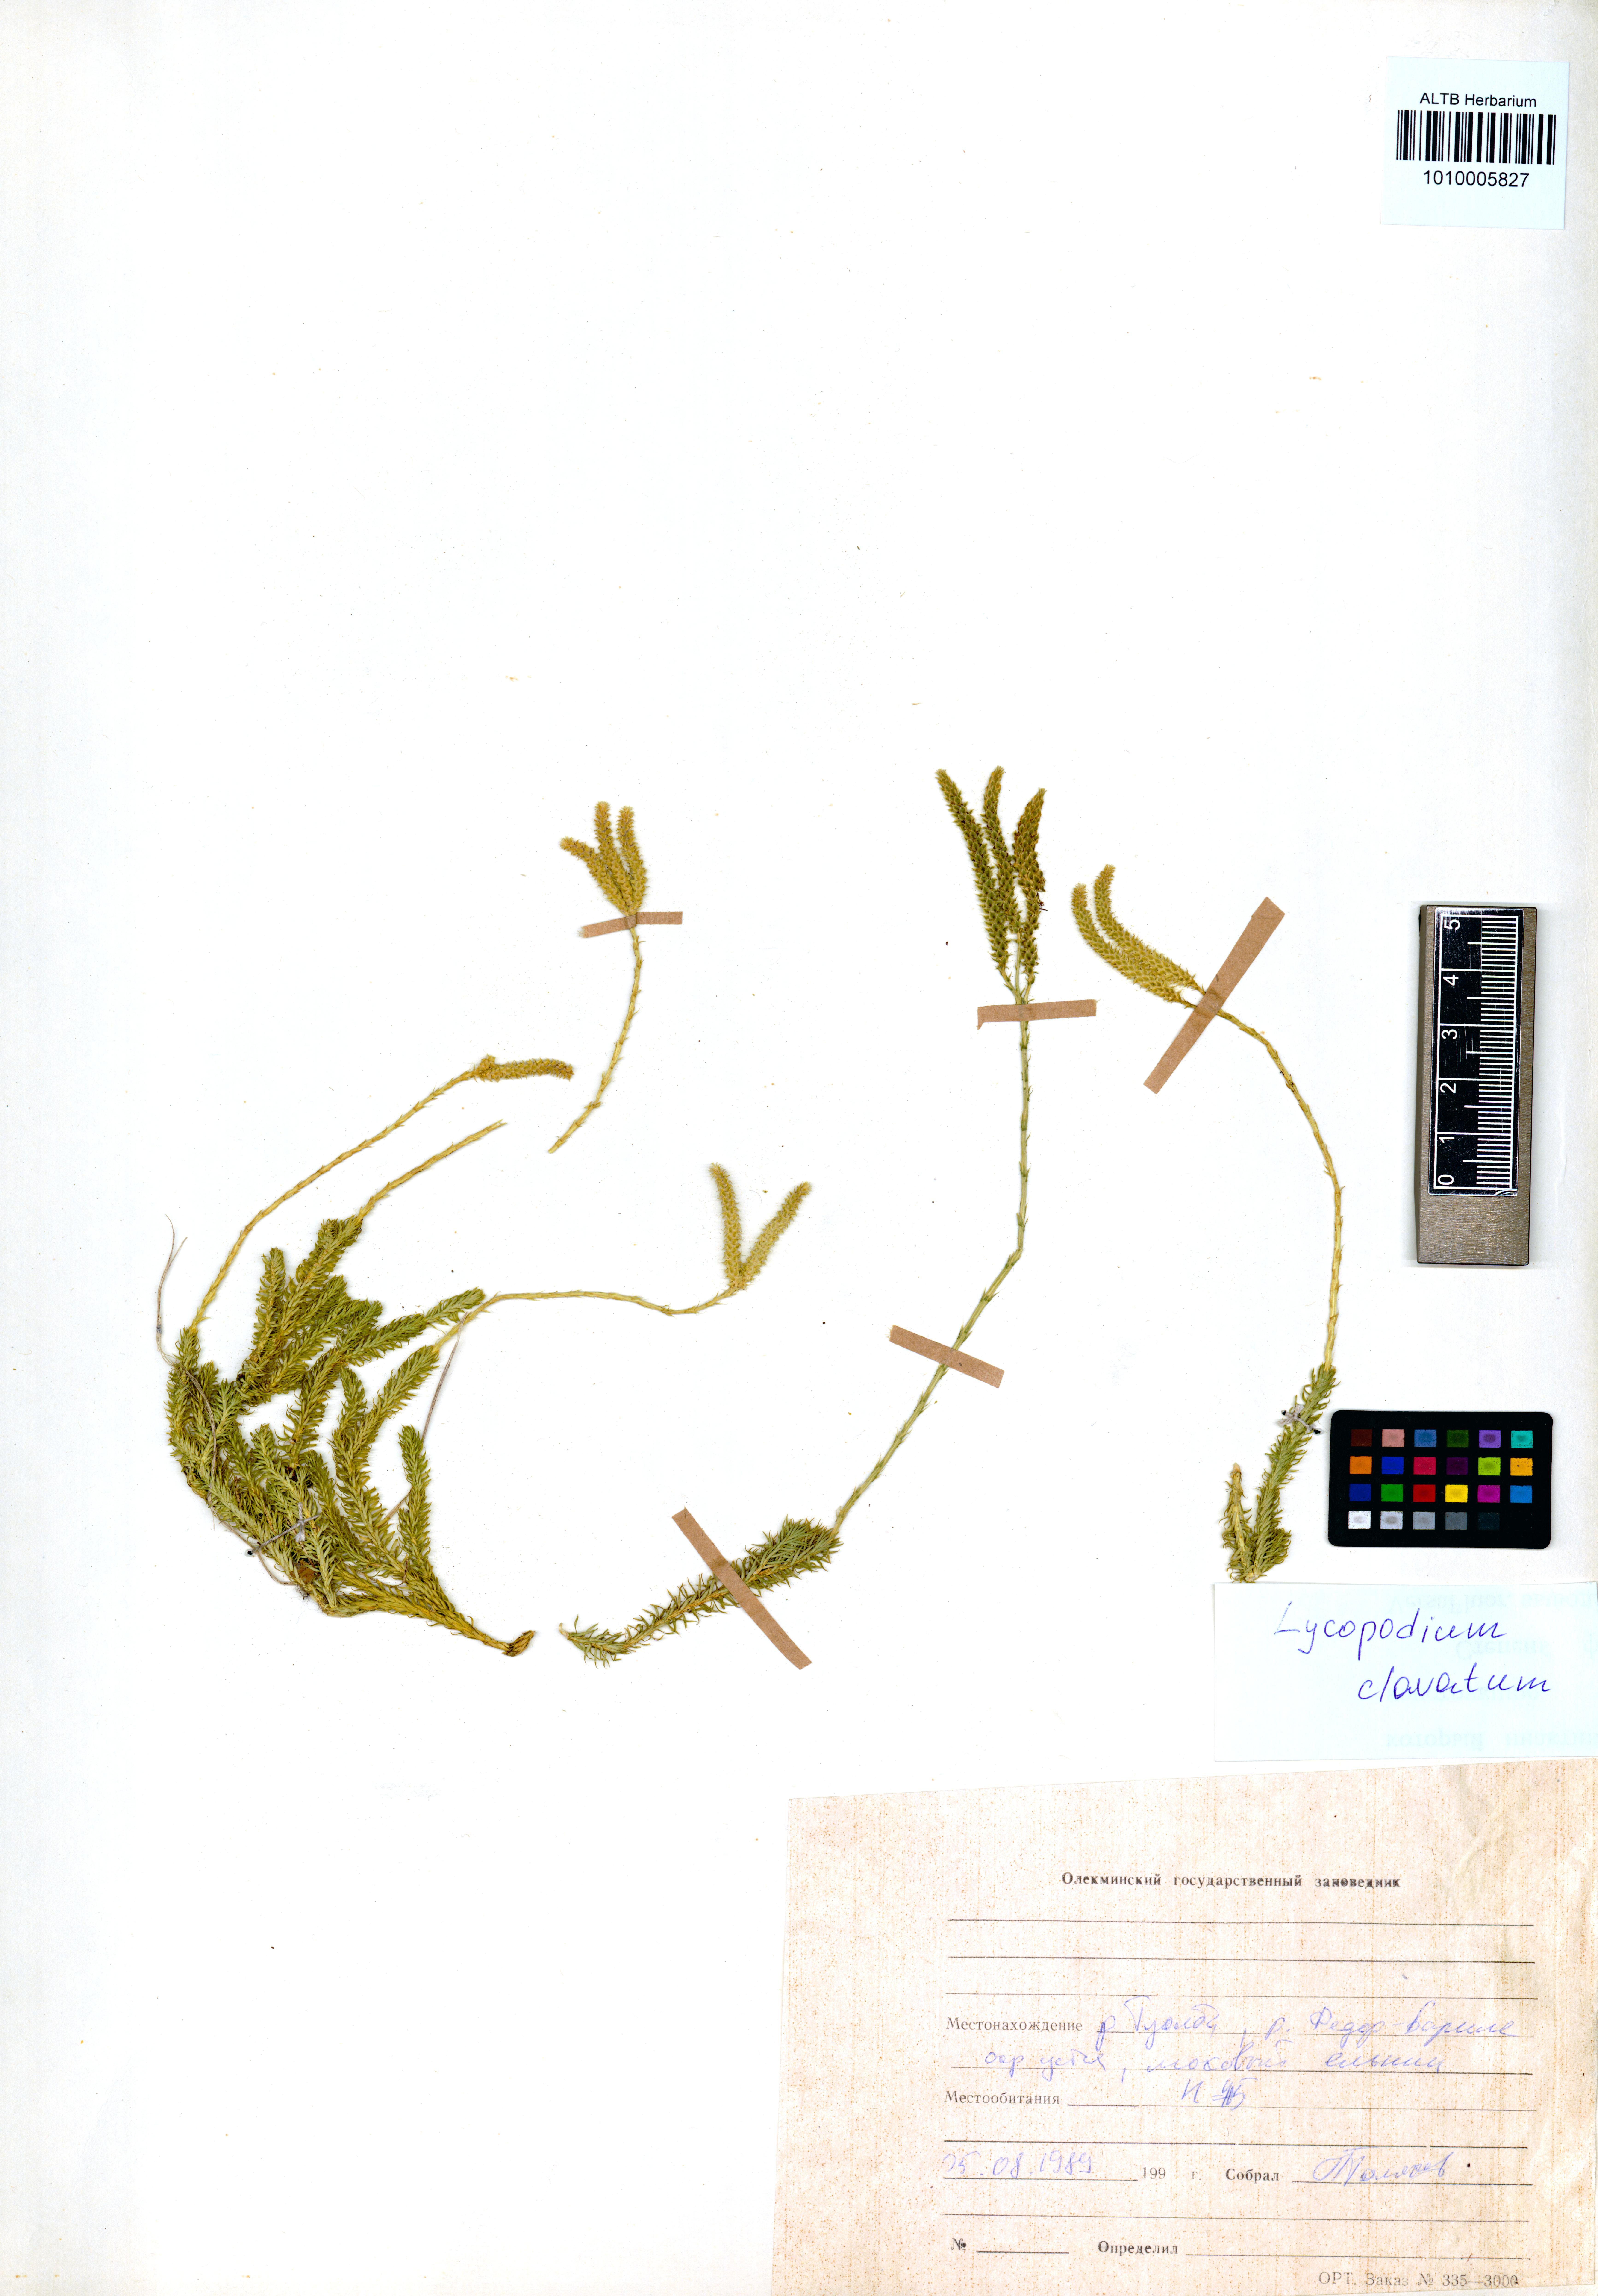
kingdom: Plantae
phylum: Tracheophyta
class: Lycopodiopsida
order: Lycopodiales
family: Lycopodiaceae
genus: Lycopodium
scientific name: Lycopodium clavatum
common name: Stag's-horn clubmoss
